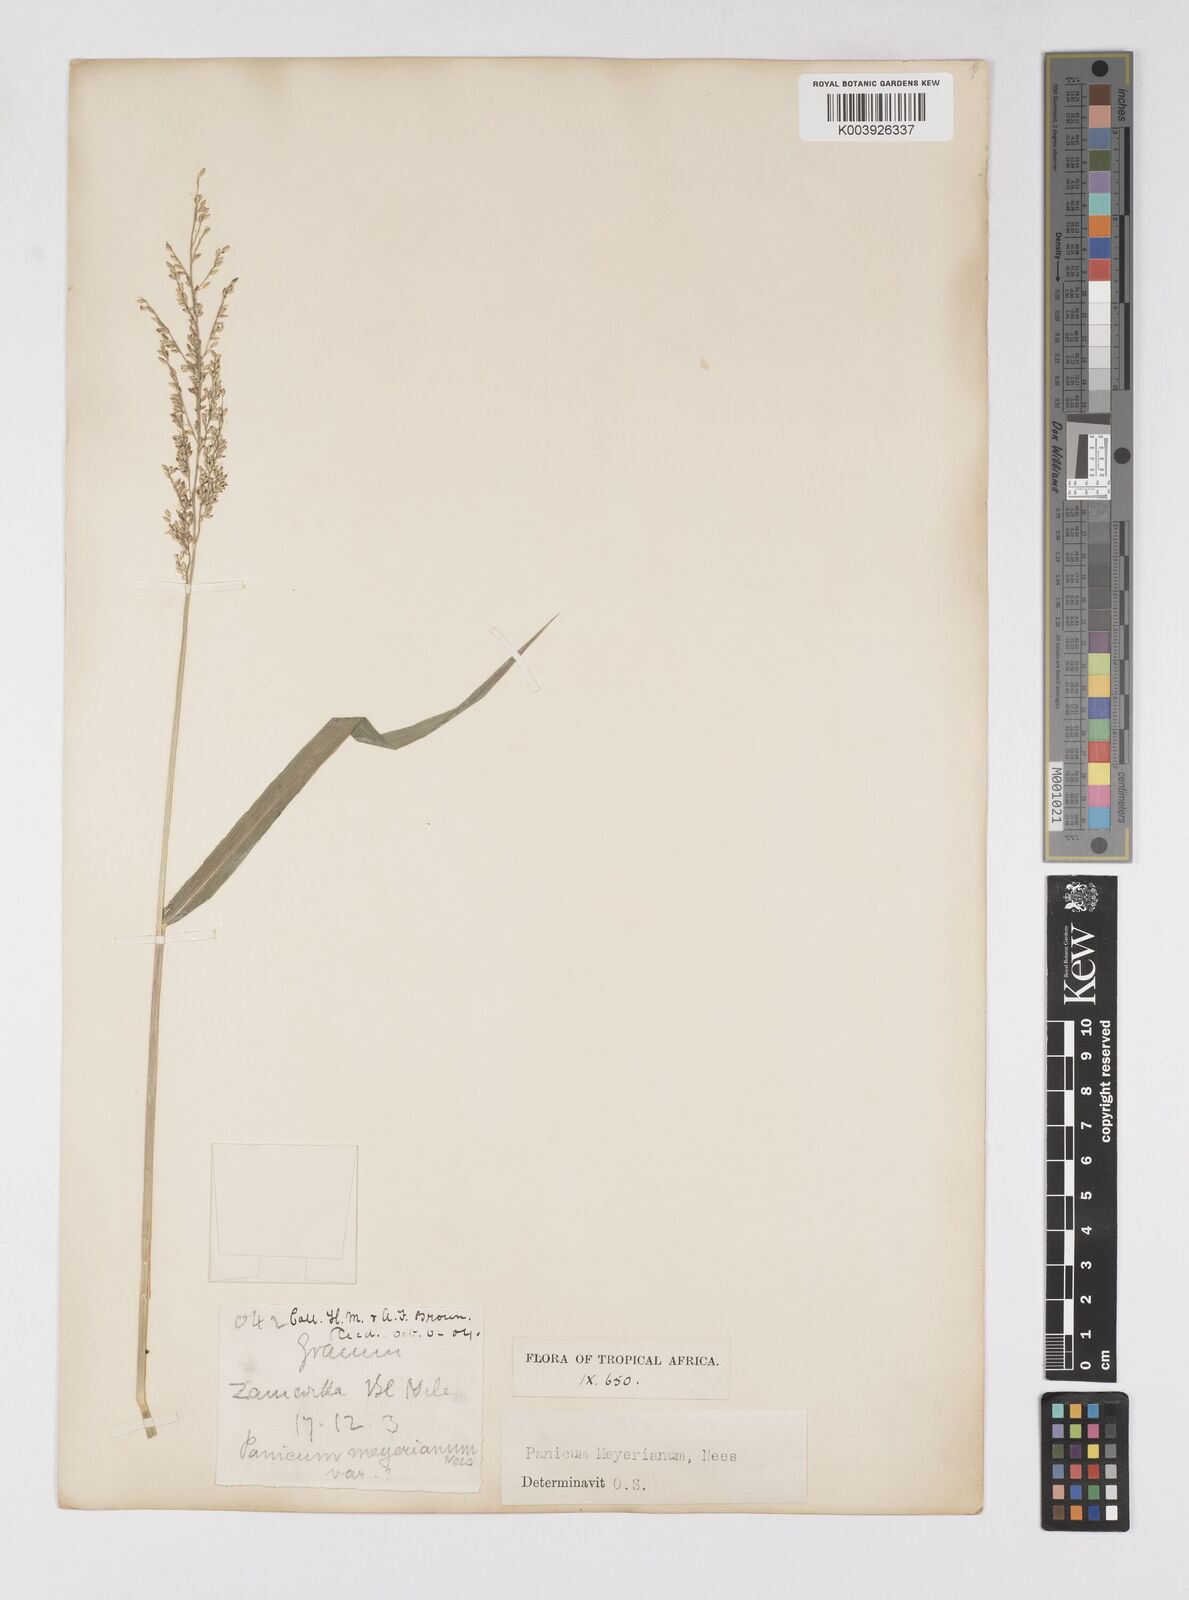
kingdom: Plantae
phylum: Tracheophyta
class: Liliopsida
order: Poales
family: Poaceae
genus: Eriochloa
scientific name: Eriochloa meyeriana
